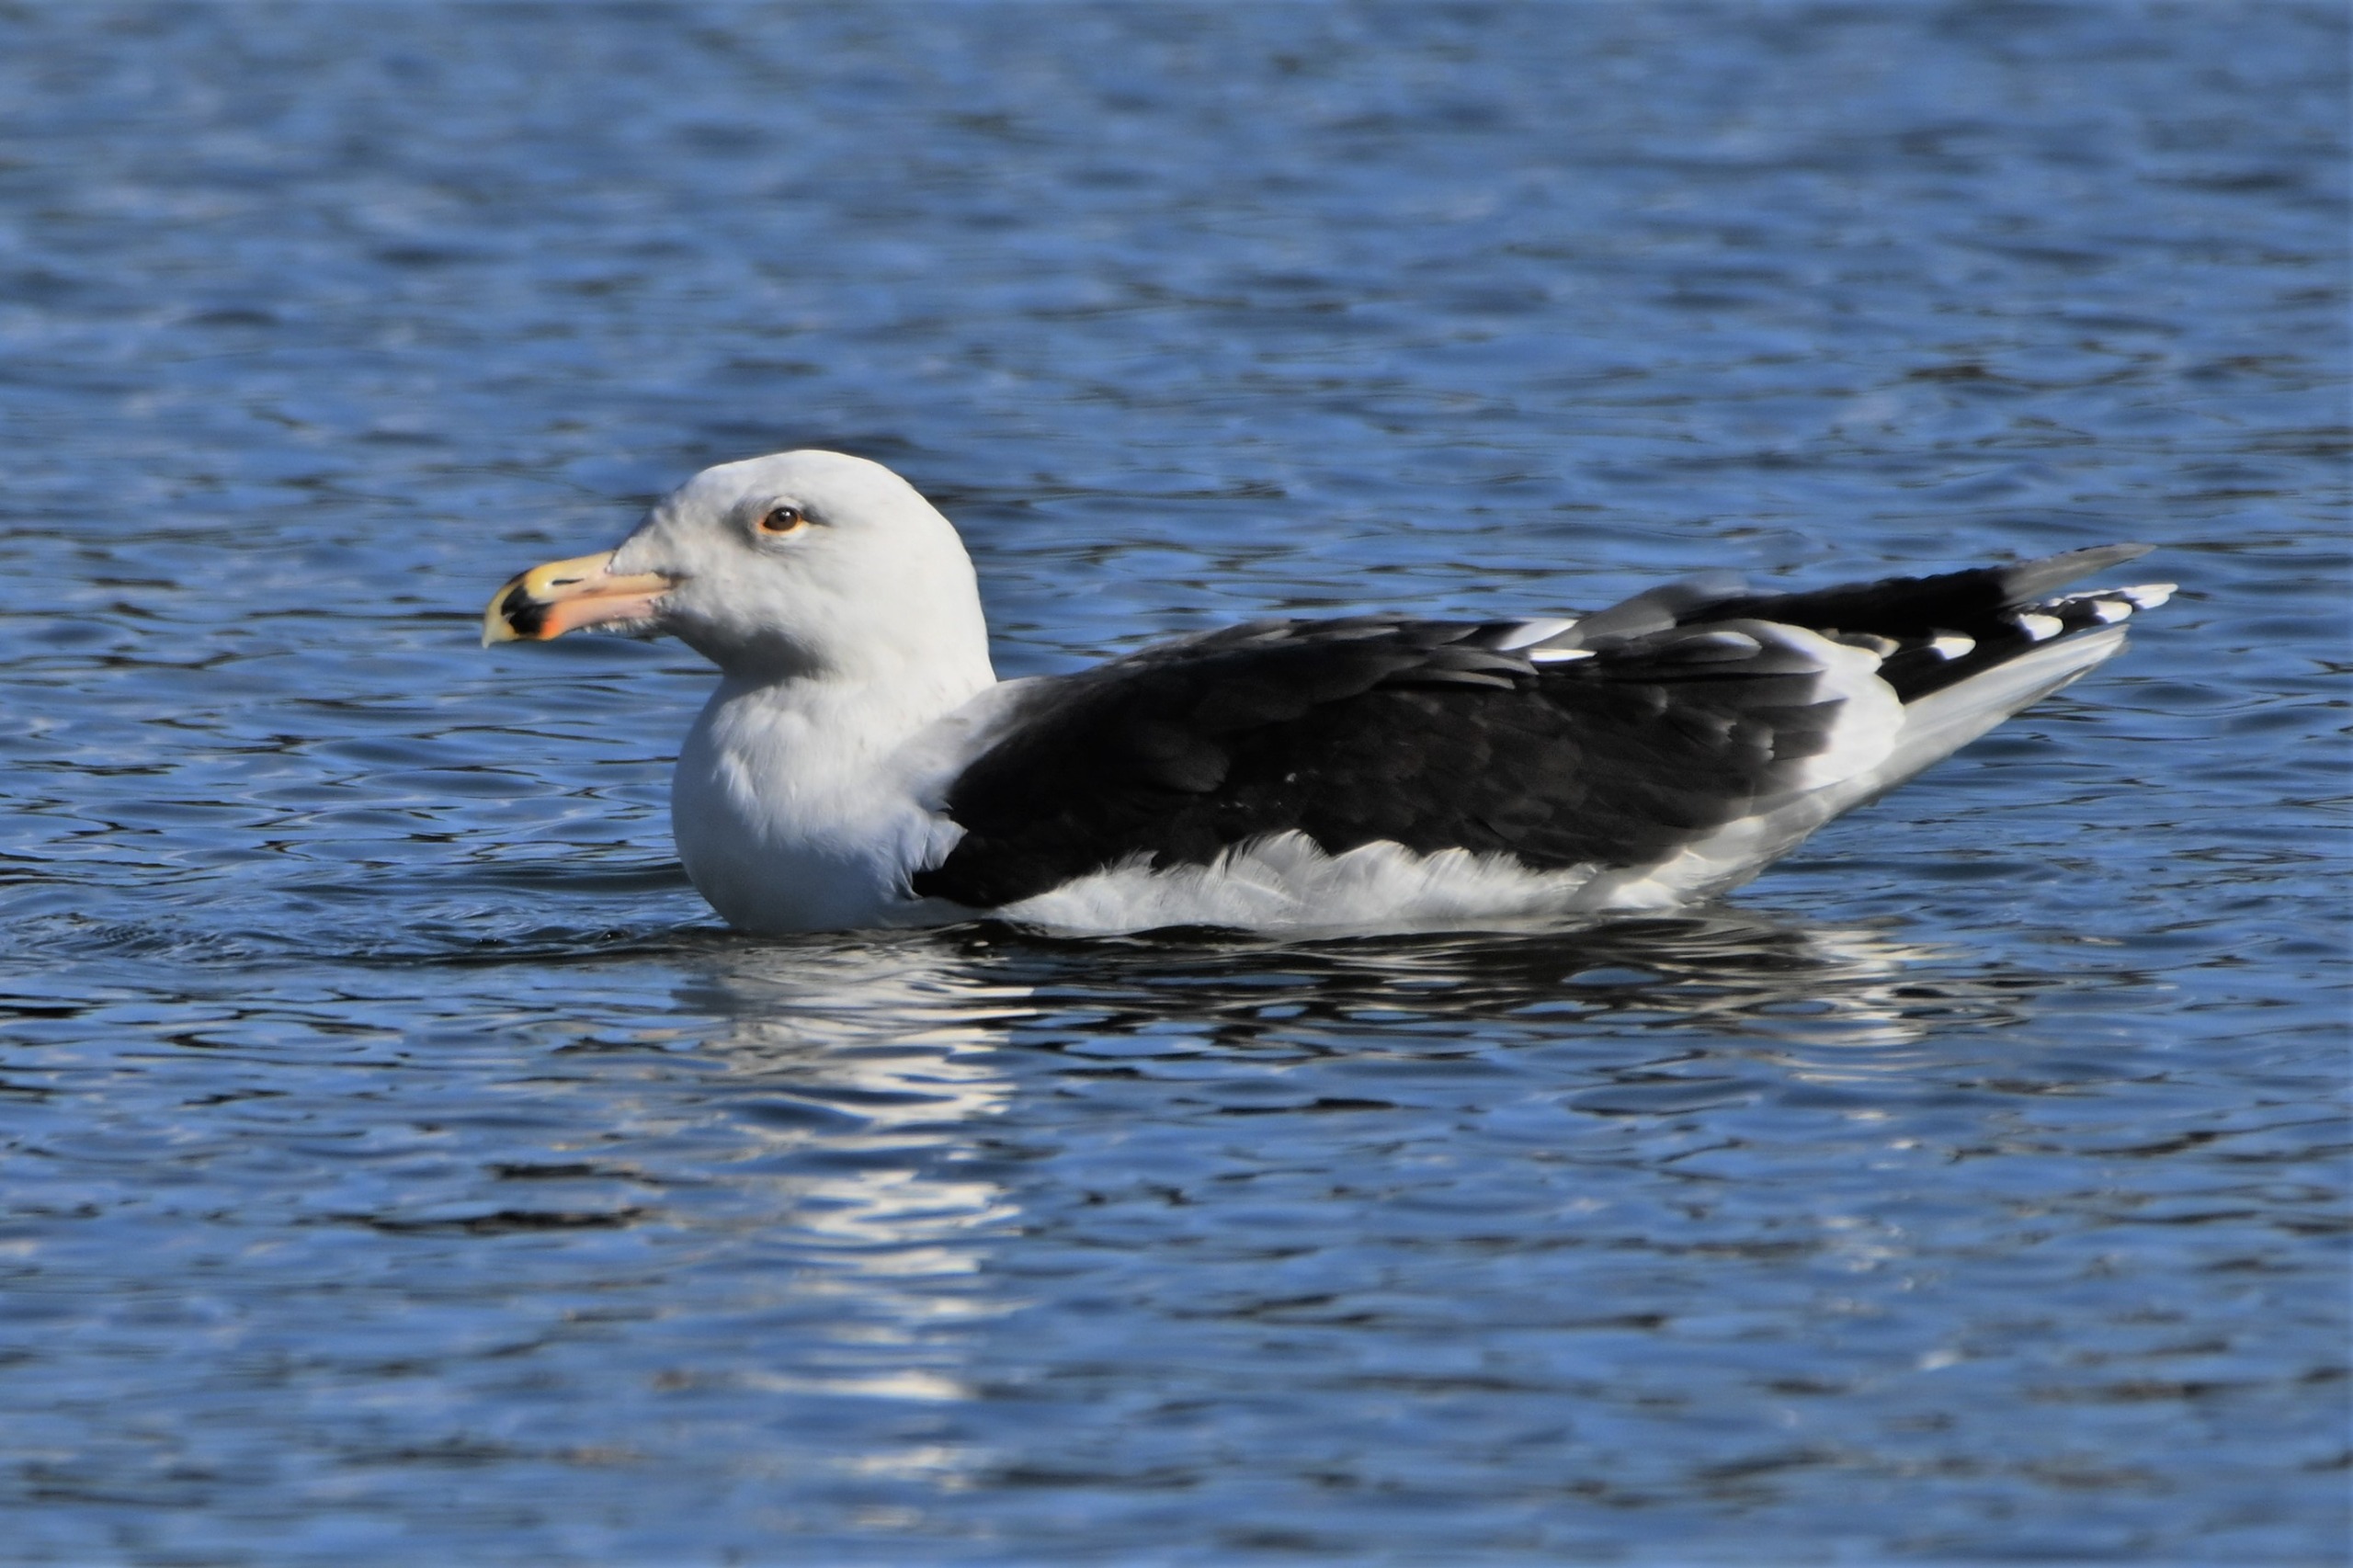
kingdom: Animalia
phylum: Chordata
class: Aves
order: Charadriiformes
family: Laridae
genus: Larus
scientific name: Larus marinus
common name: Svartbag
